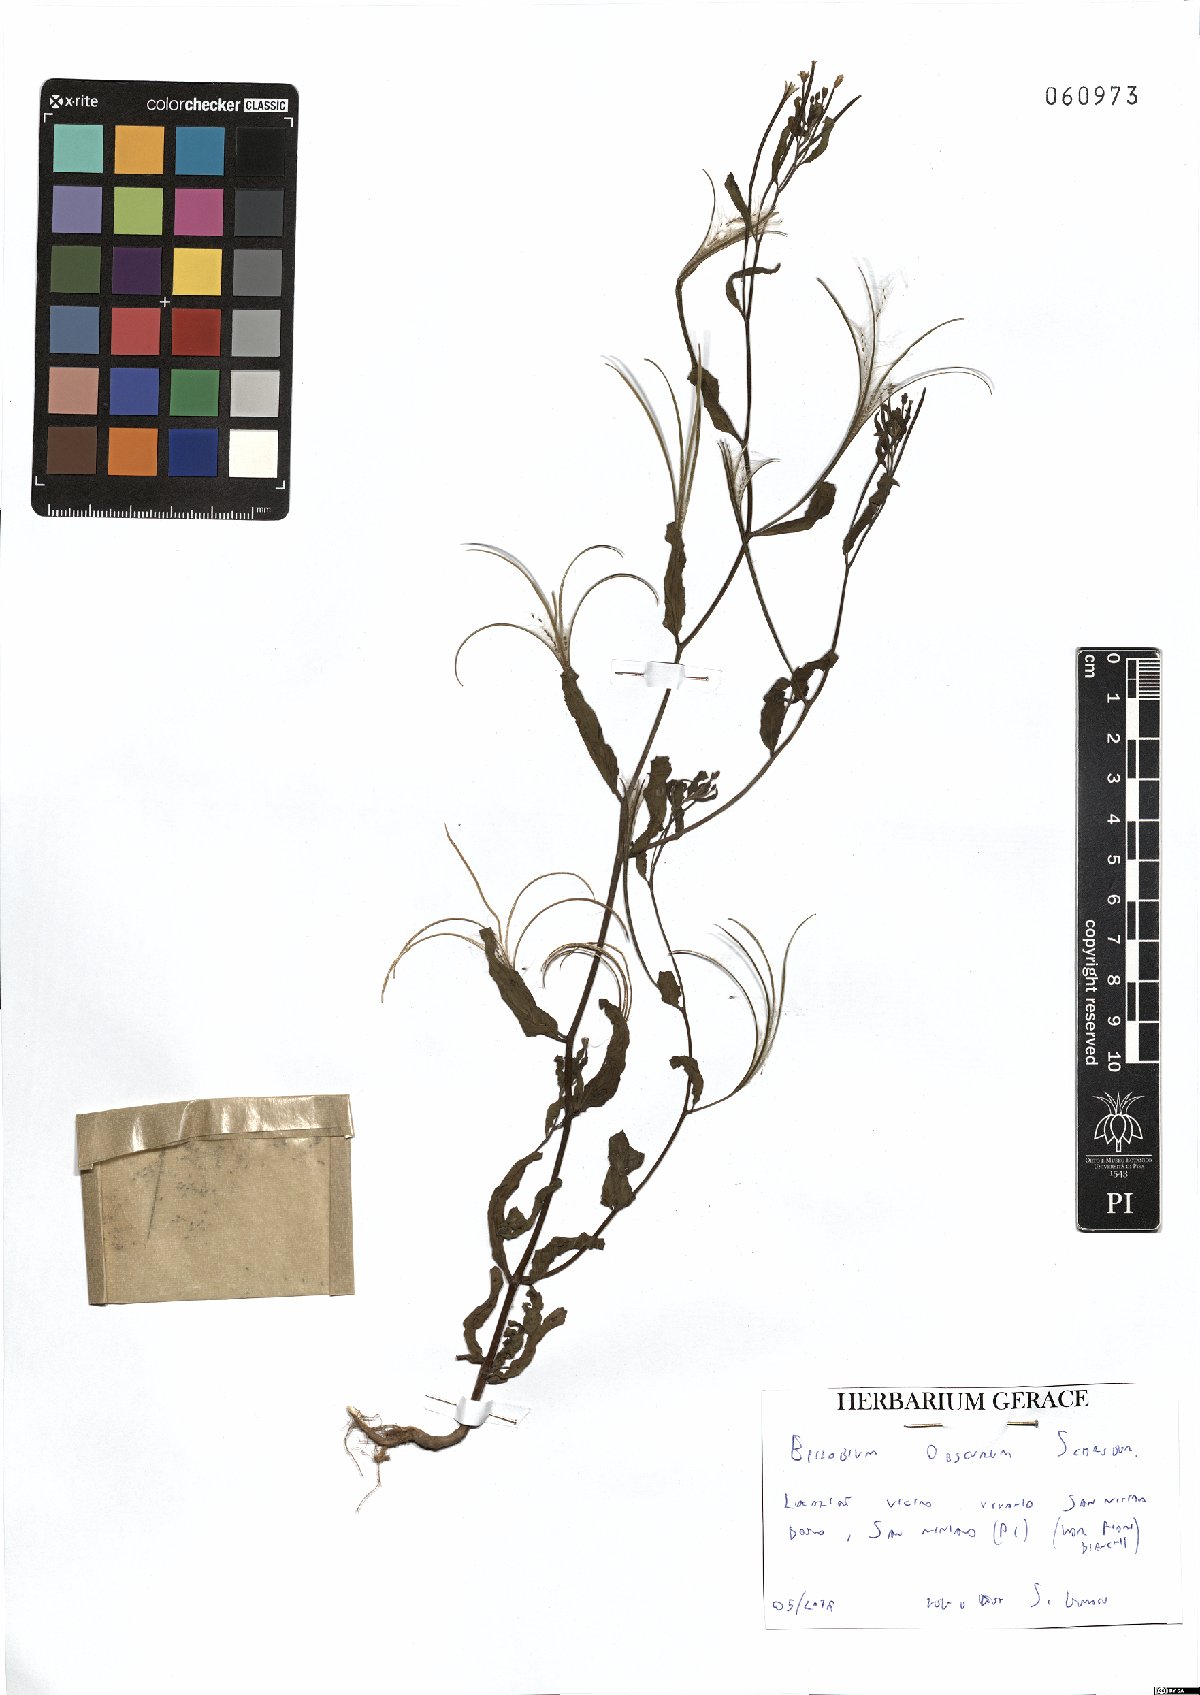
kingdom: Plantae
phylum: Tracheophyta
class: Magnoliopsida
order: Myrtales
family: Onagraceae
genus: Epilobium
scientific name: Epilobium obscurum
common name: Short-fruited willowherb
